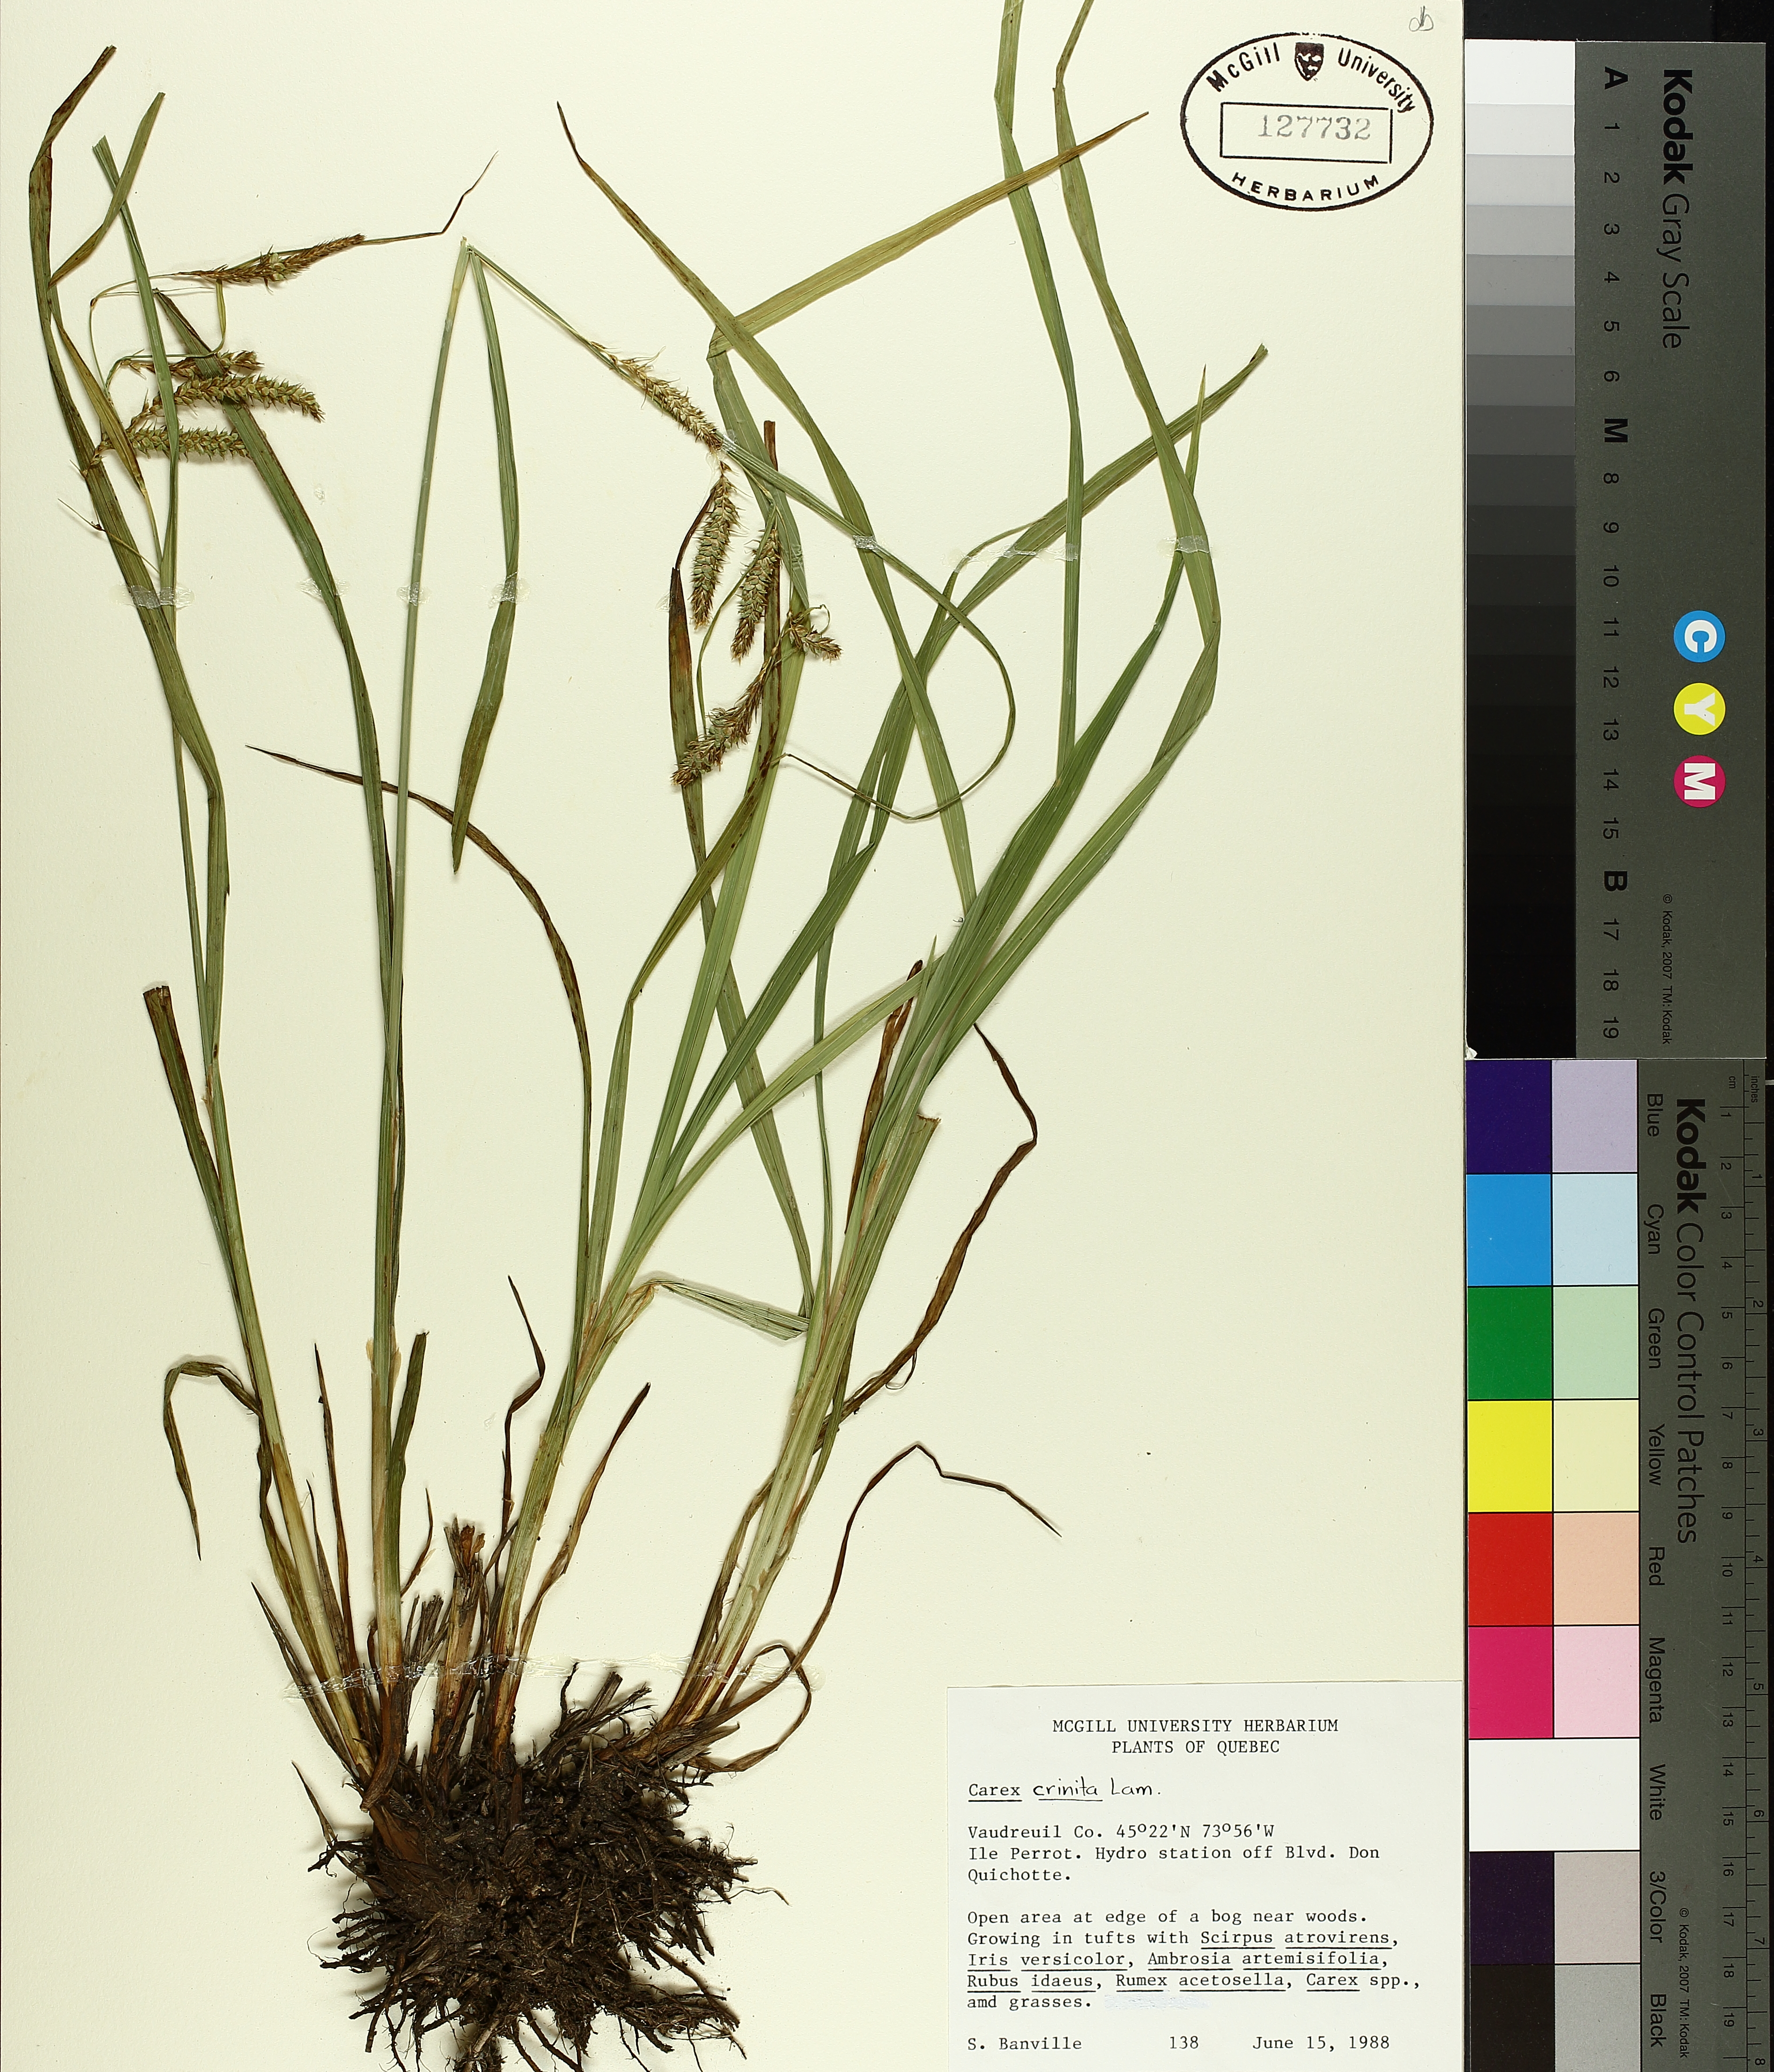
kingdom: Plantae
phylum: Tracheophyta
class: Liliopsida
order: Poales
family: Cyperaceae
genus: Carex
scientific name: Carex crinita
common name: Fringed sedge
